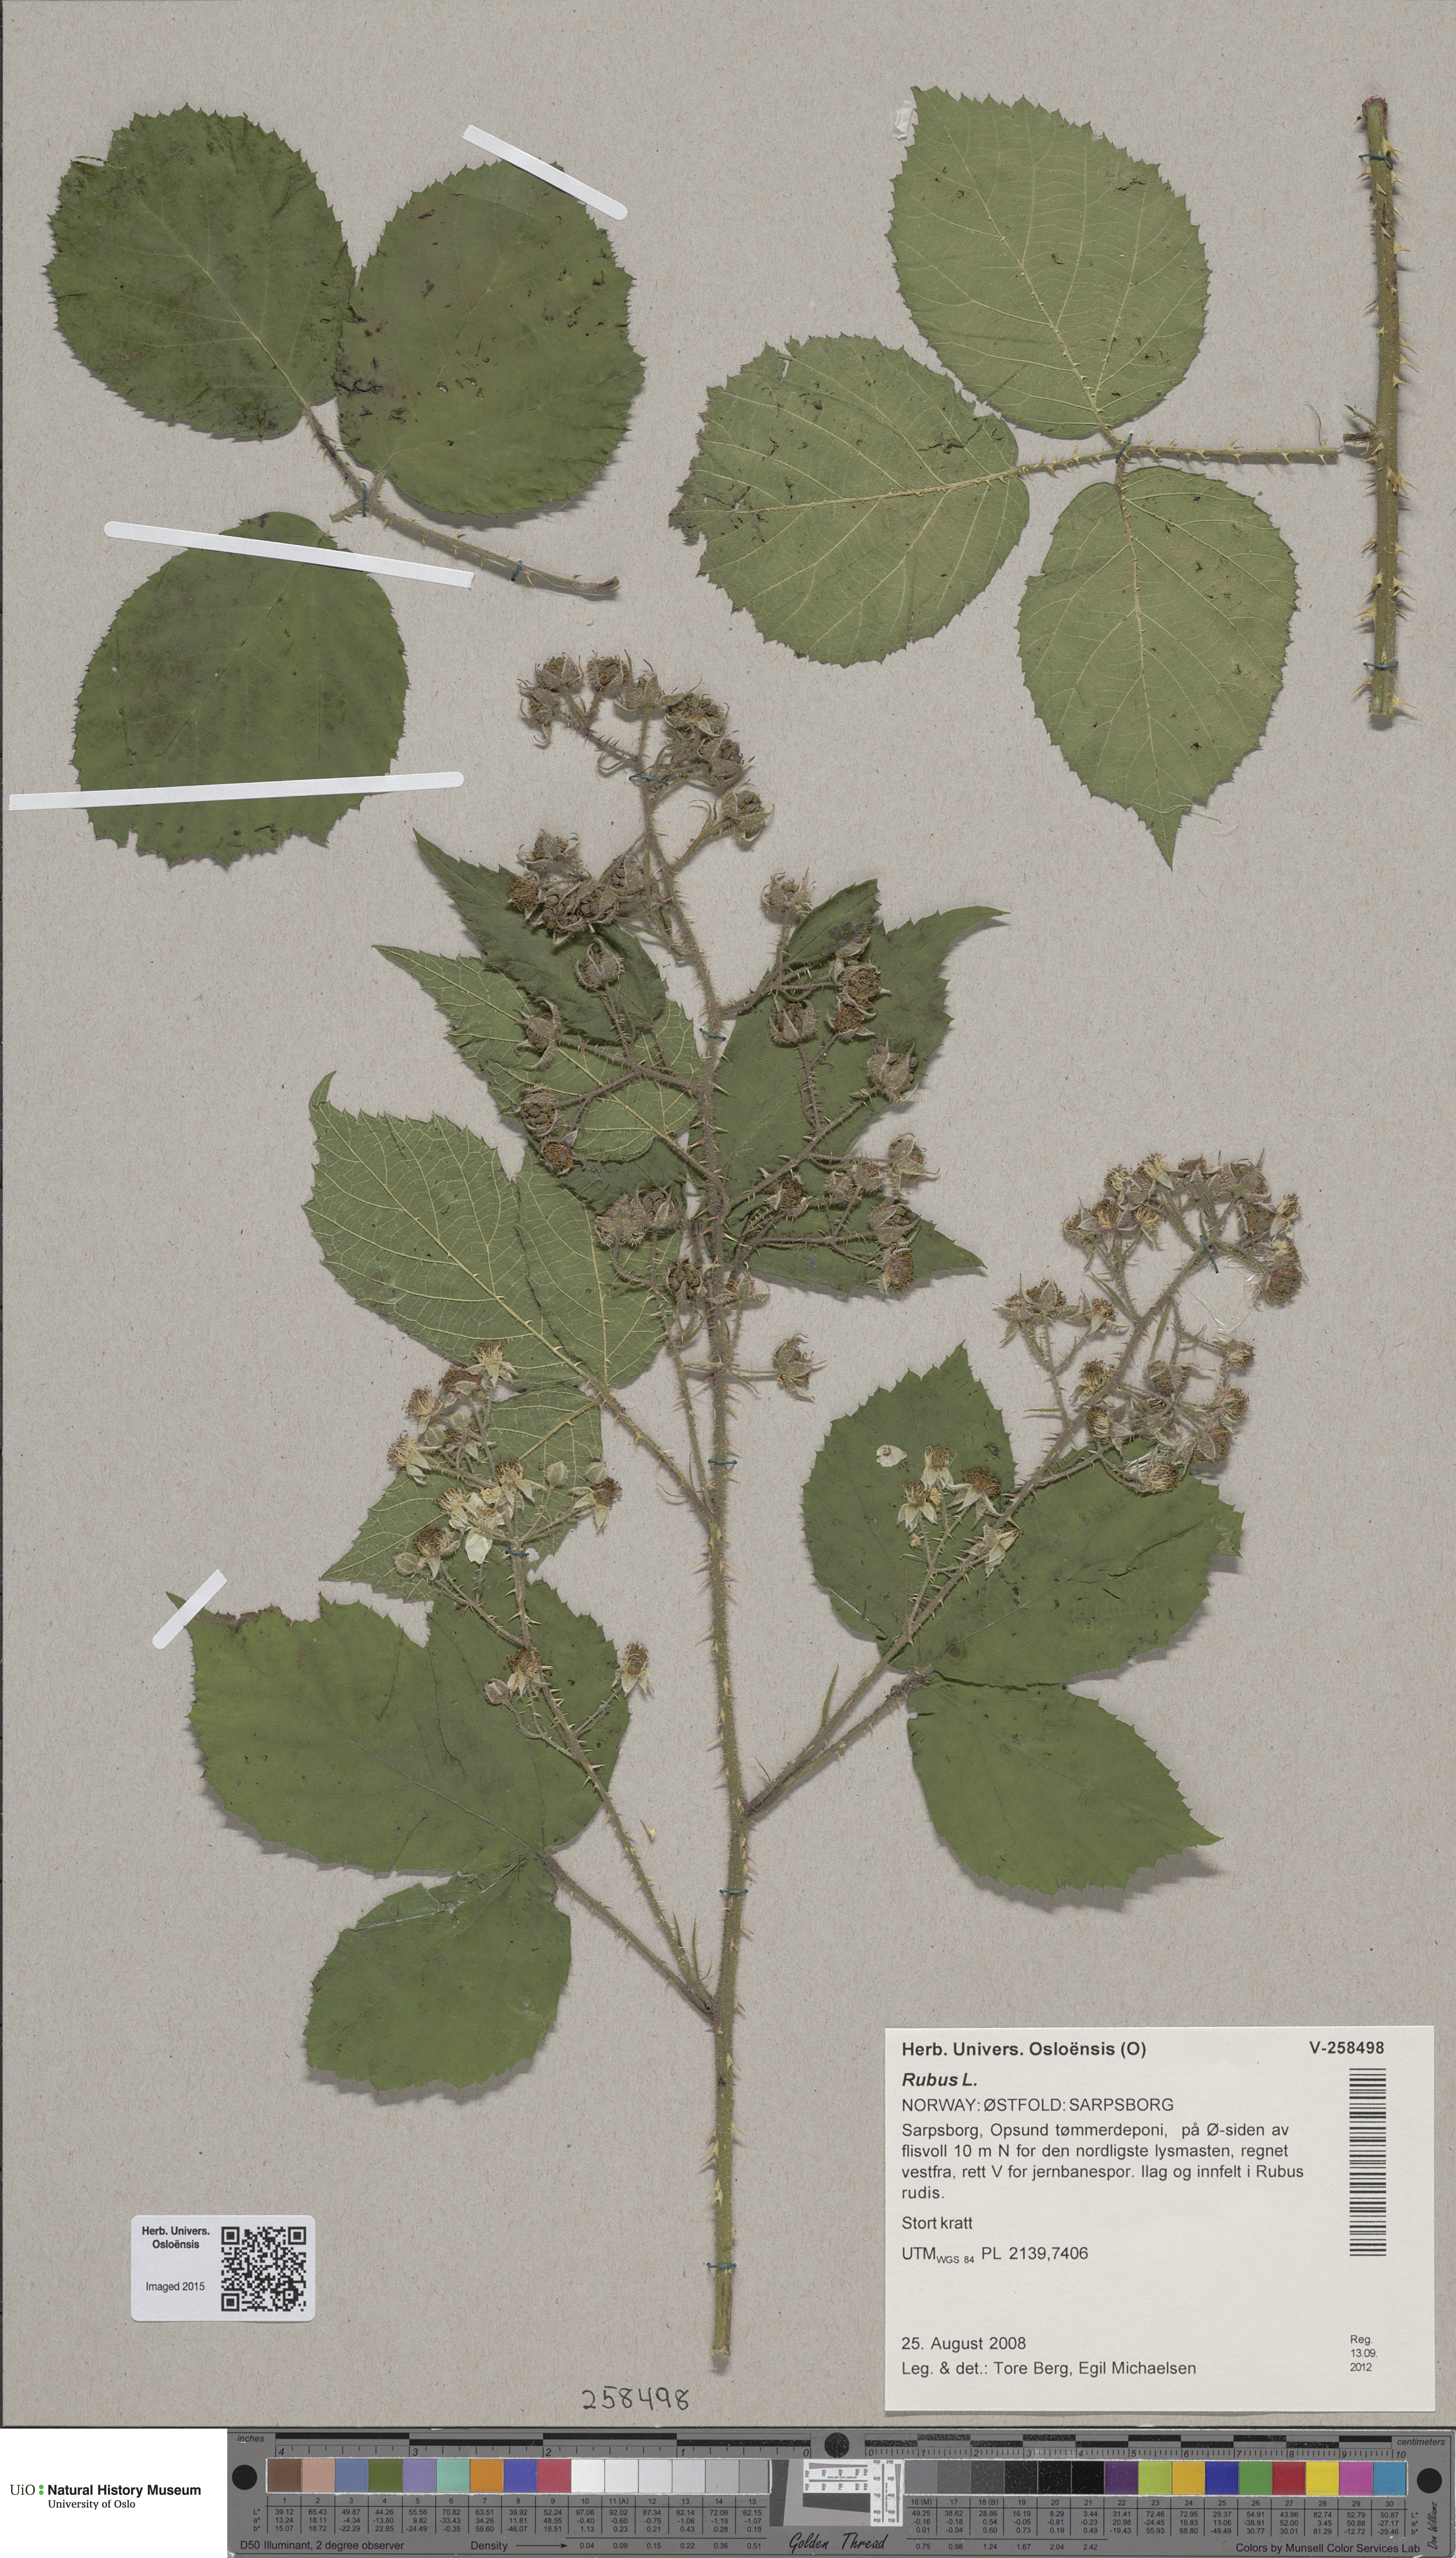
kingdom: Plantae
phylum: Tracheophyta
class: Magnoliopsida
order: Rosales
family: Rosaceae
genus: Rubus
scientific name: Rubus
